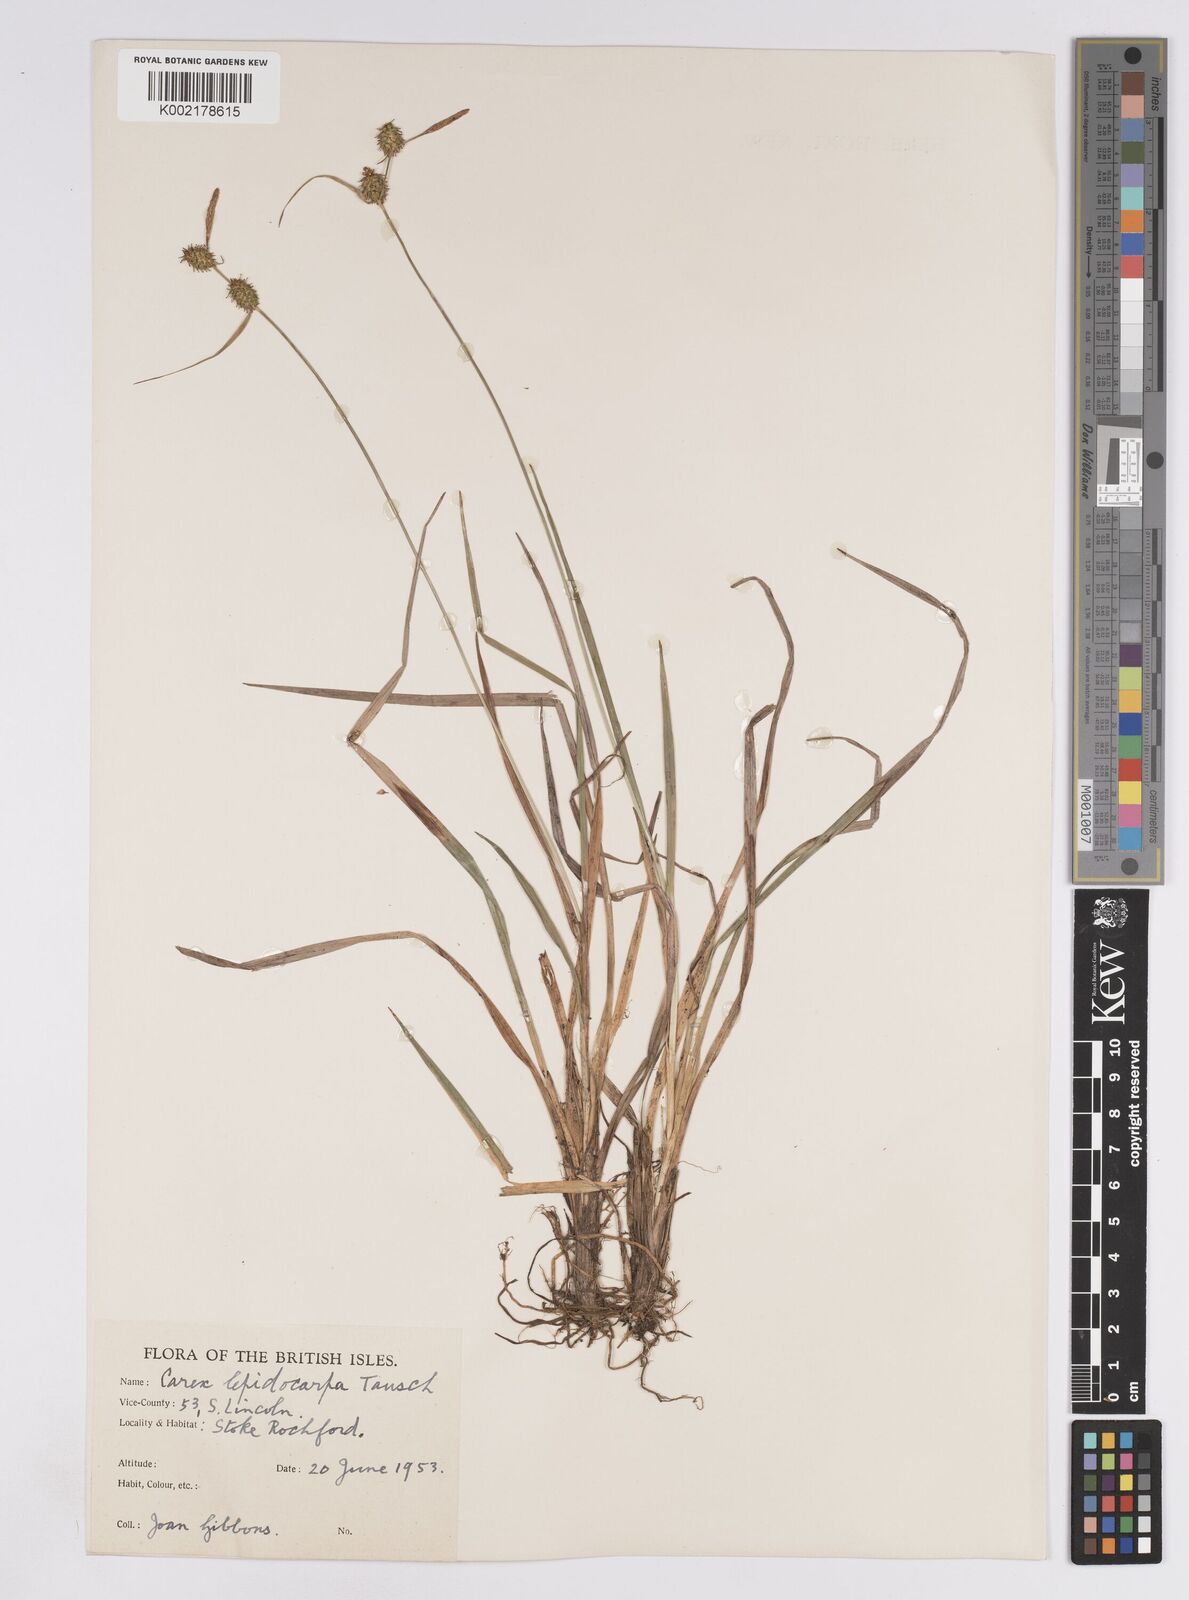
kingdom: Plantae
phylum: Tracheophyta
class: Liliopsida
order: Poales
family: Cyperaceae
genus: Carex
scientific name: Carex lepidocarpa
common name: Long-stalked yellow-sedge
